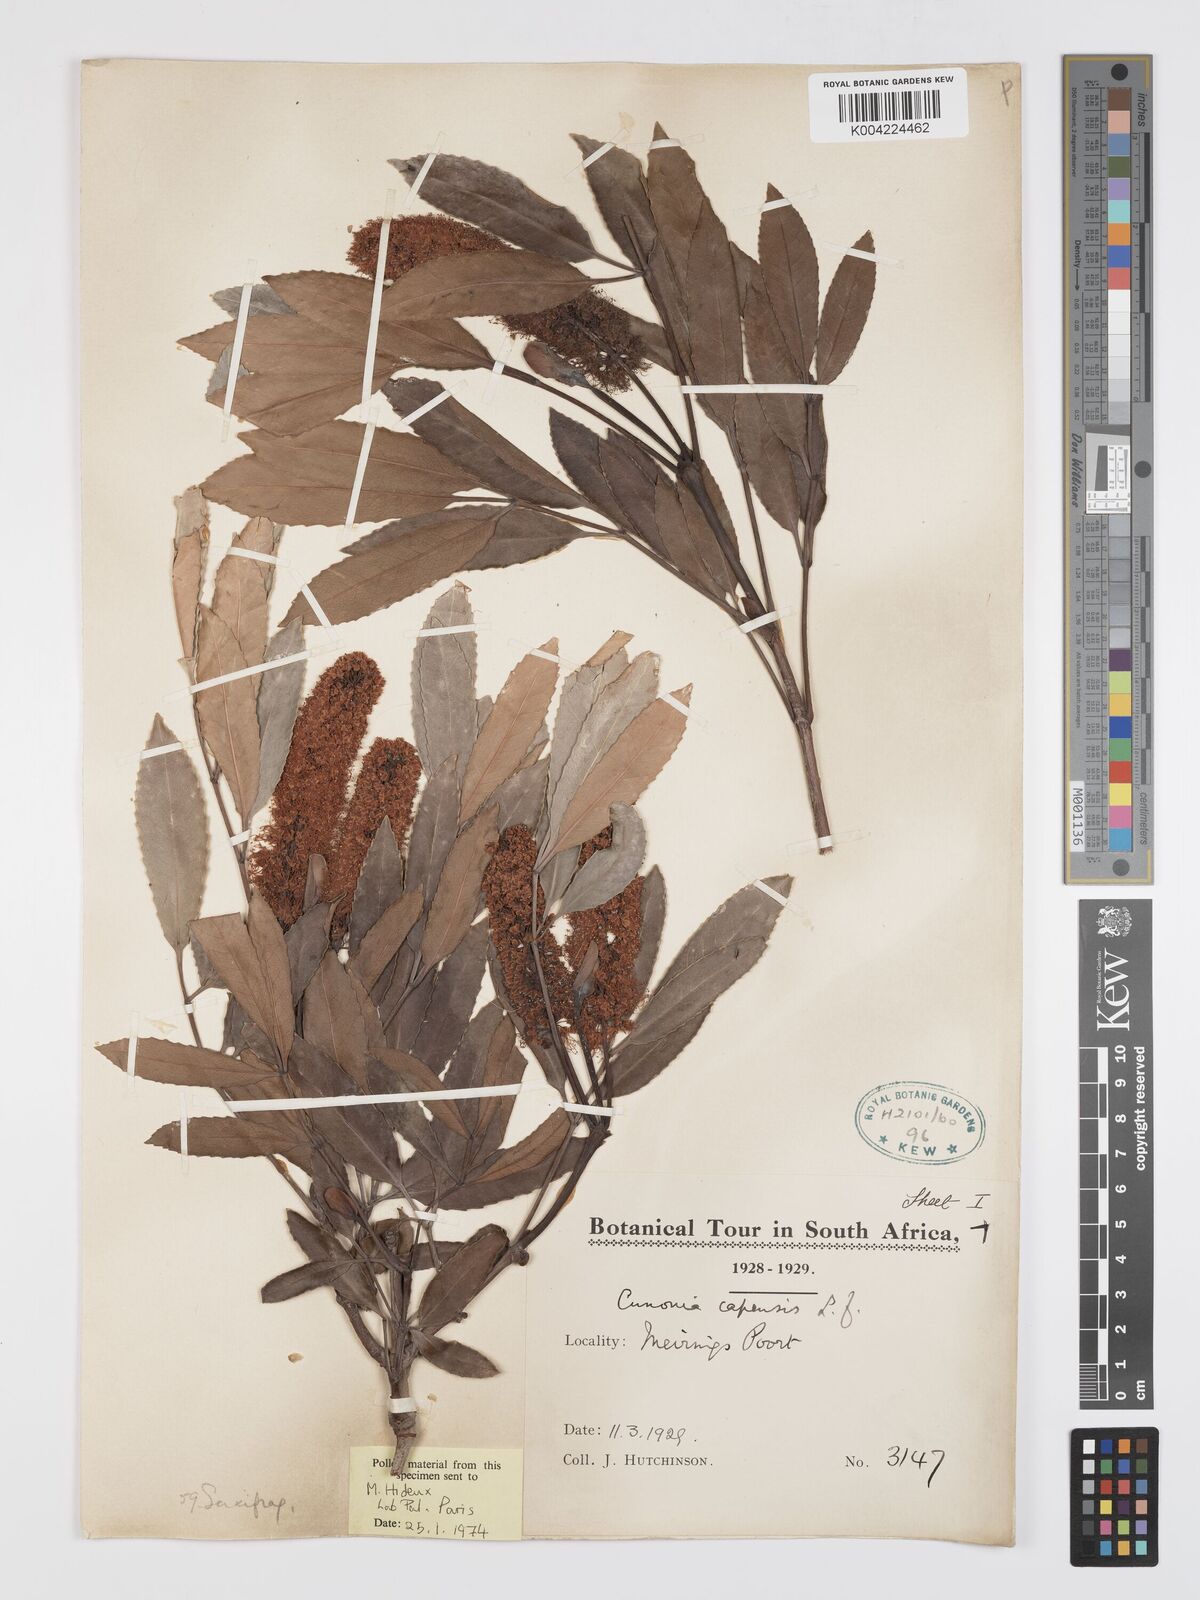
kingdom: Plantae
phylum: Tracheophyta
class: Magnoliopsida
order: Oxalidales
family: Cunoniaceae
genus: Cunonia
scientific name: Cunonia capensis
